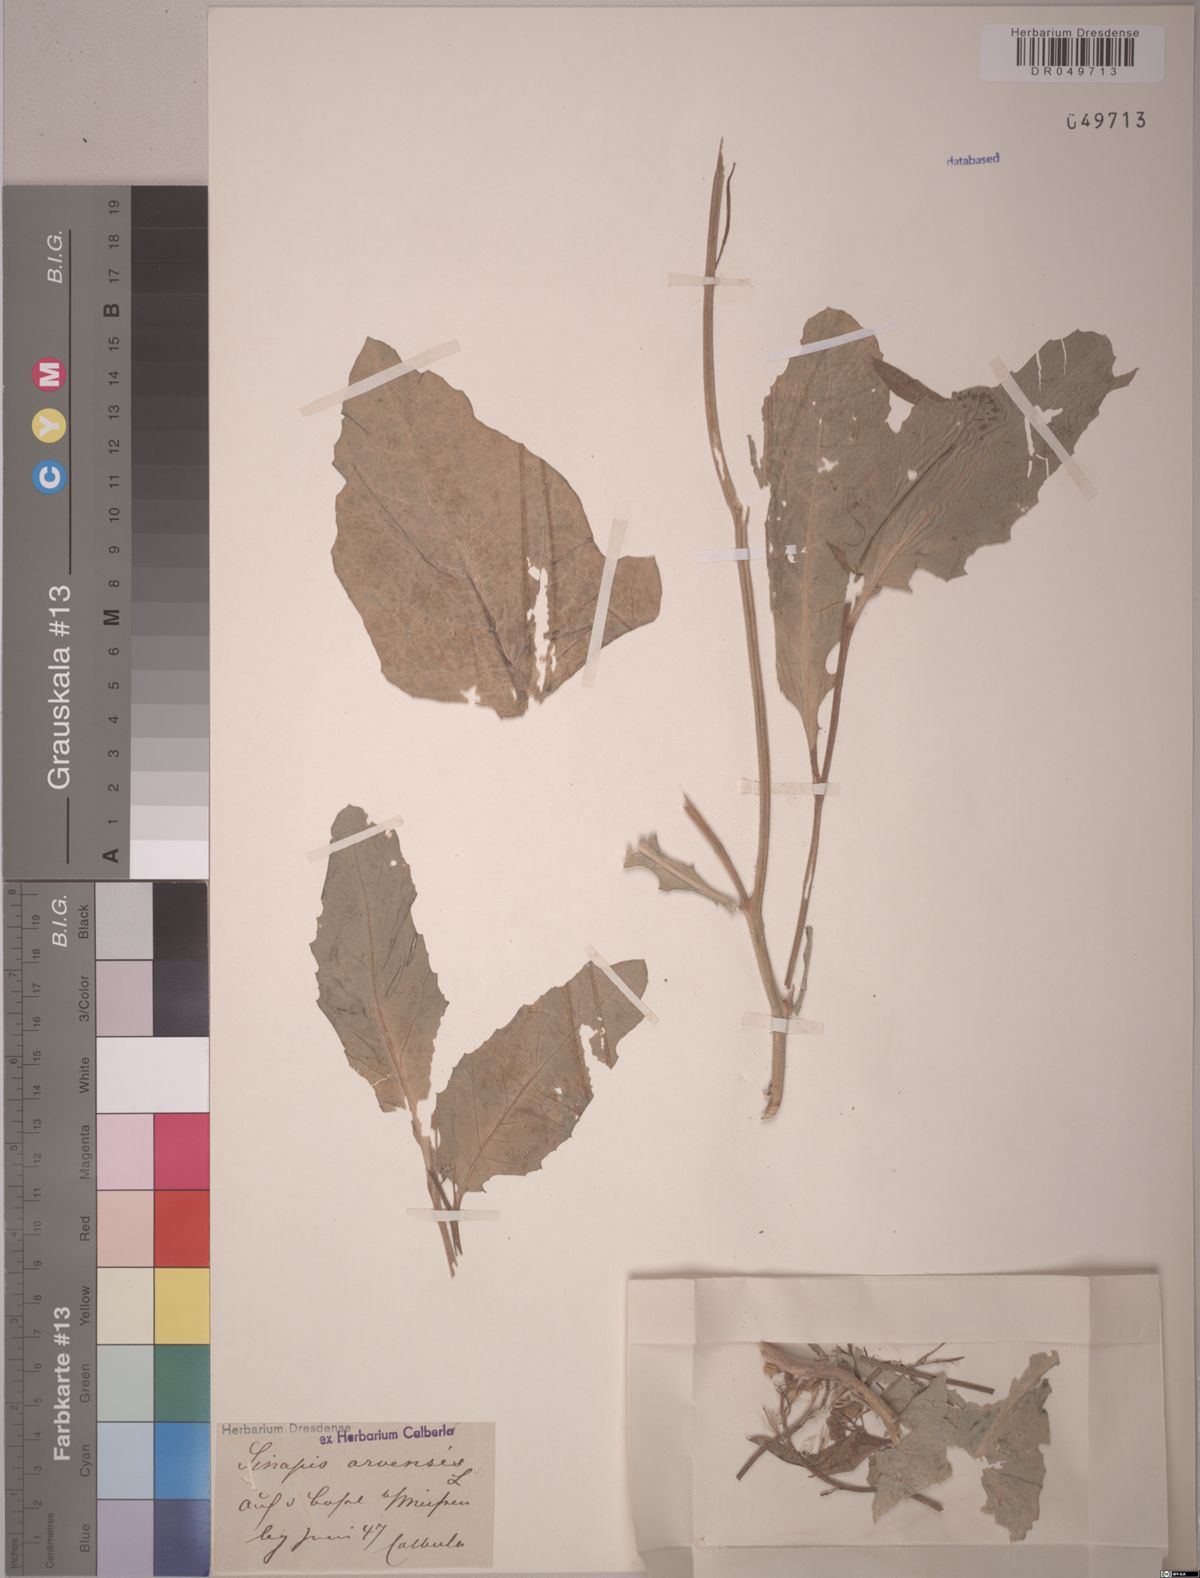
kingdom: Plantae
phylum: Tracheophyta
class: Magnoliopsida
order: Brassicales
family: Brassicaceae
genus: Sinapis
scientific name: Sinapis arvensis
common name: Charlock
